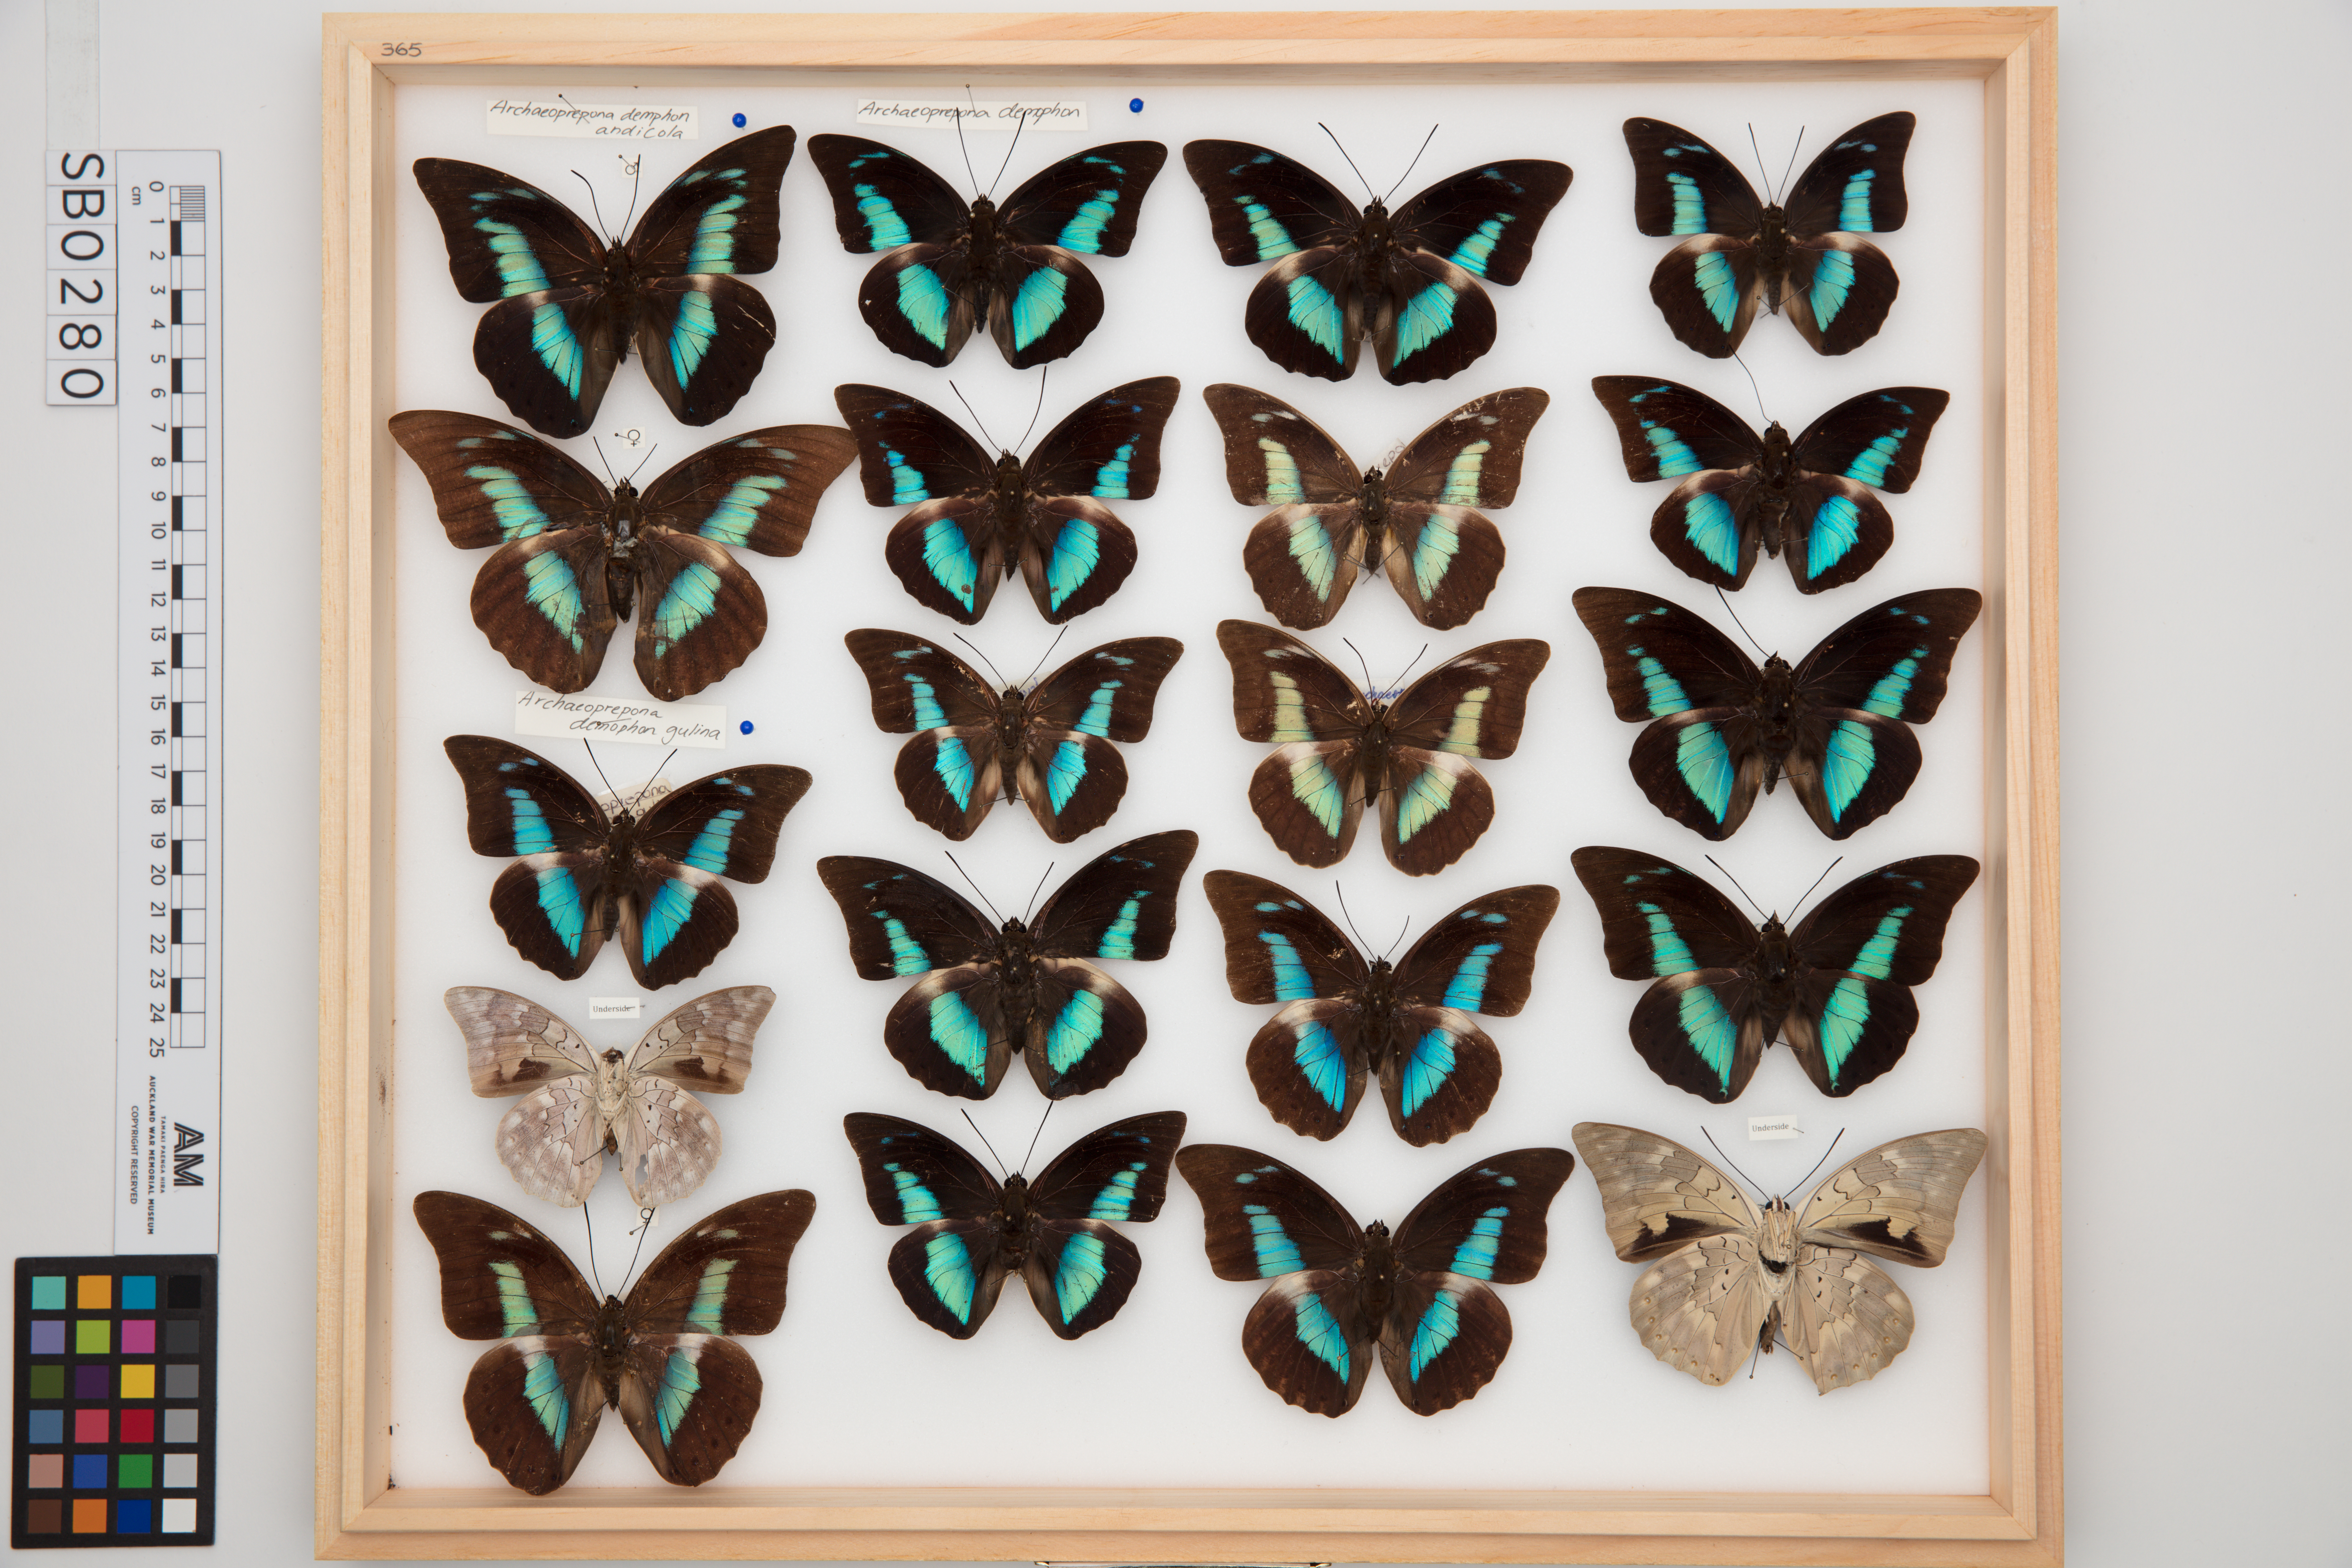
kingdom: Animalia
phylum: Arthropoda
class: Insecta
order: Lepidoptera
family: Nymphalidae
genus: Prepona
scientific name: Prepona Archaeoprepona demophoon
